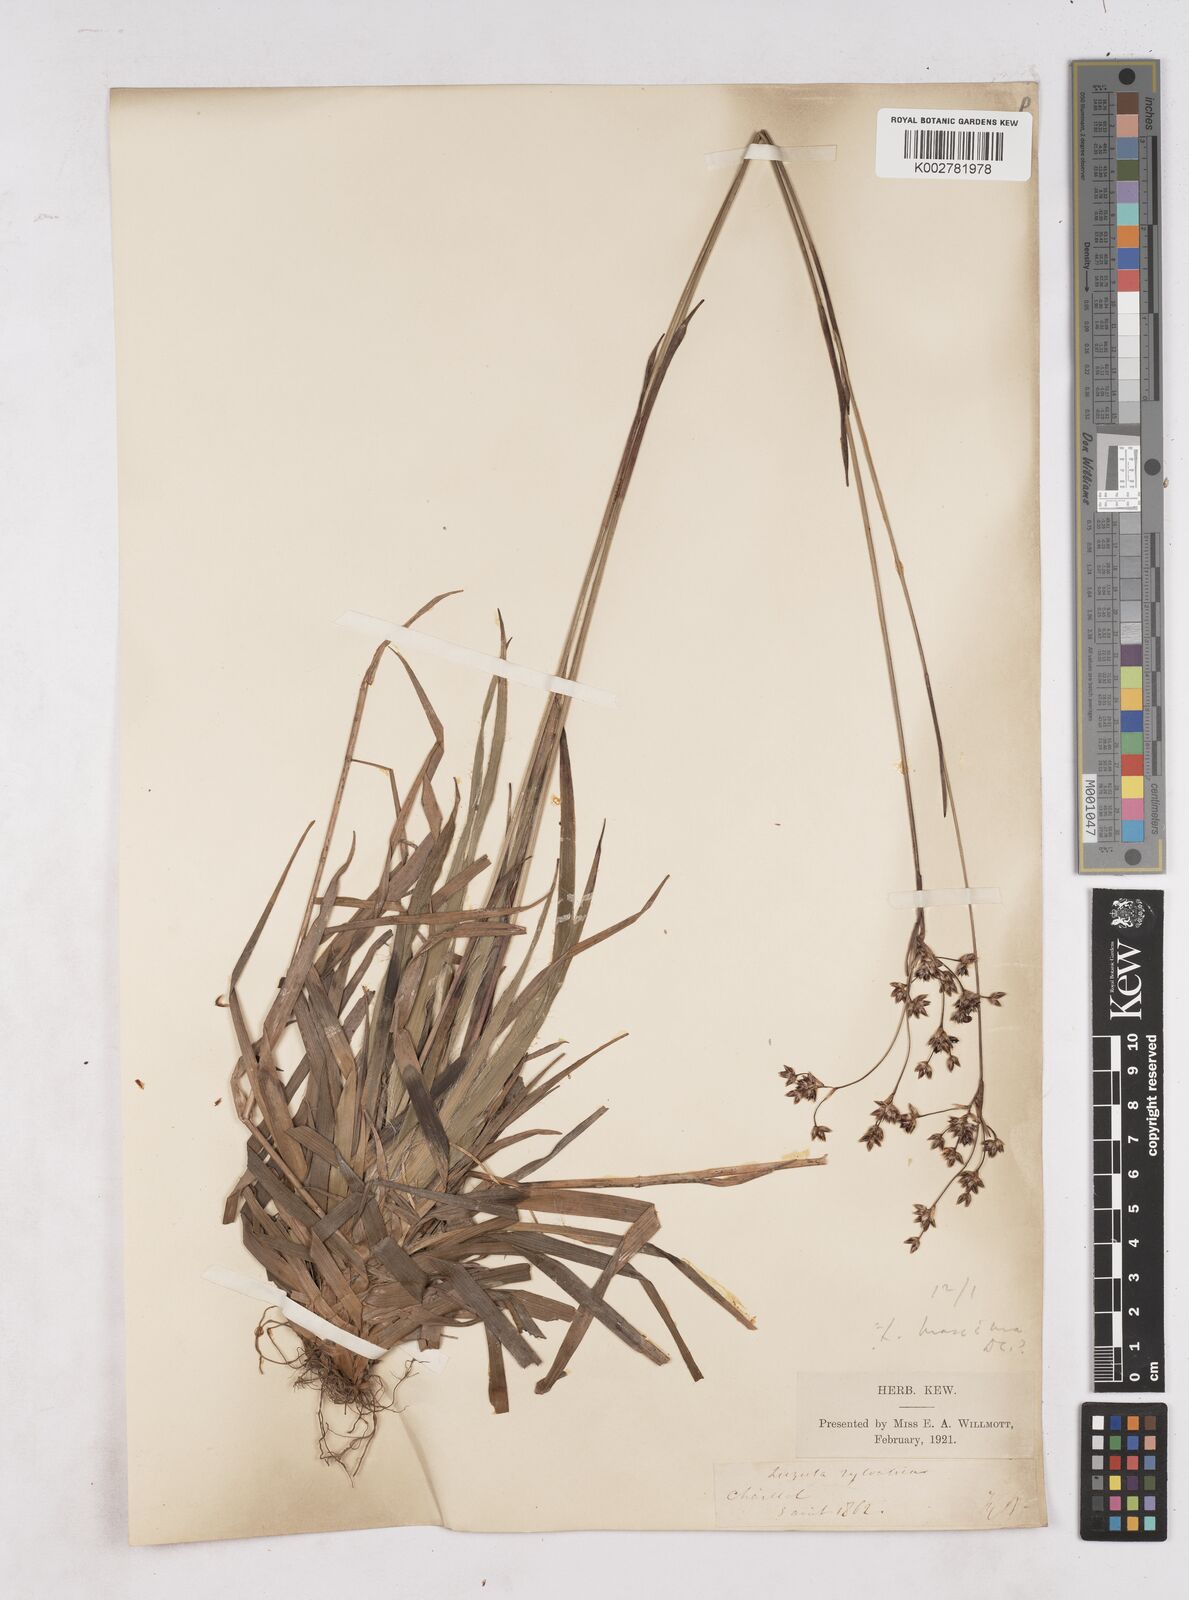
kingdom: Plantae
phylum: Tracheophyta
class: Liliopsida
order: Poales
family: Juncaceae
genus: Luzula
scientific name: Luzula sylvatica
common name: Great wood-rush
